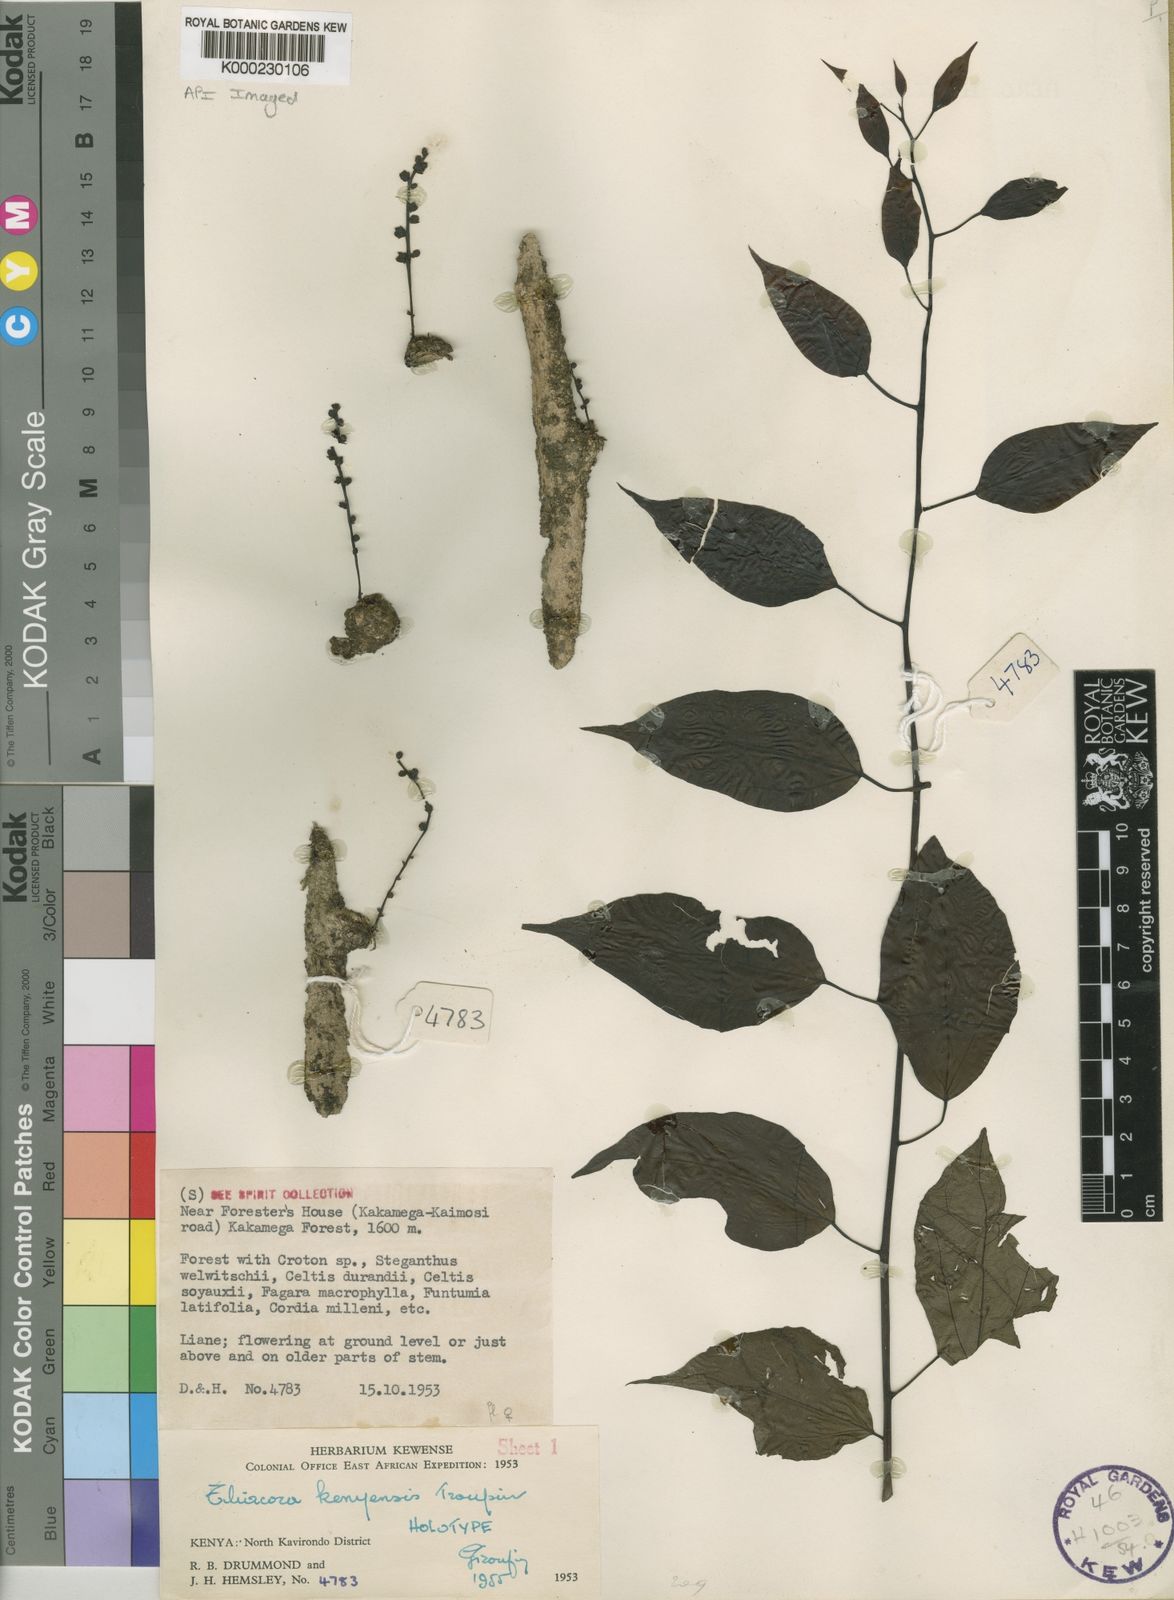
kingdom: Plantae
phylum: Tracheophyta
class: Magnoliopsida
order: Metteniusales
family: Metteniusaceae
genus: Rhaphiostylis
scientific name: Rhaphiostylis
